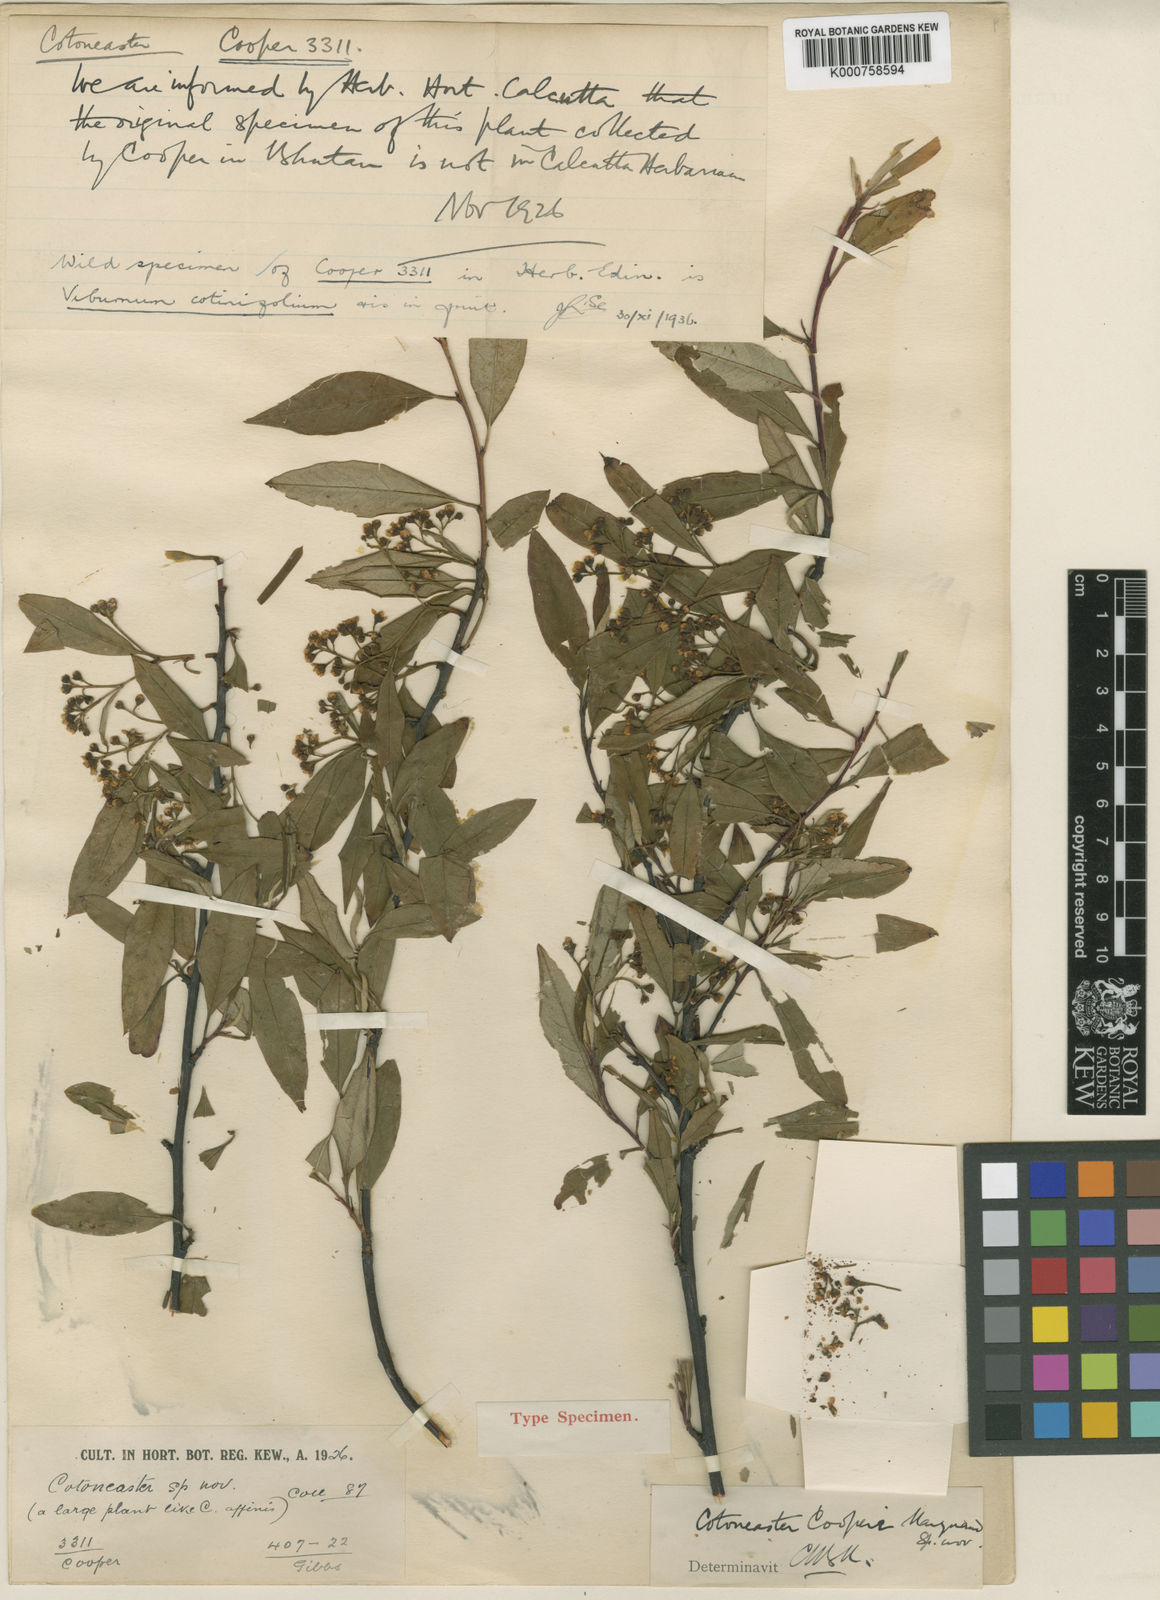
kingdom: Plantae
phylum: Tracheophyta
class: Magnoliopsida
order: Rosales
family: Rosaceae
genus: Cotoneaster
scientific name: Cotoneaster cooperi
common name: Cooper's cotoneaster
